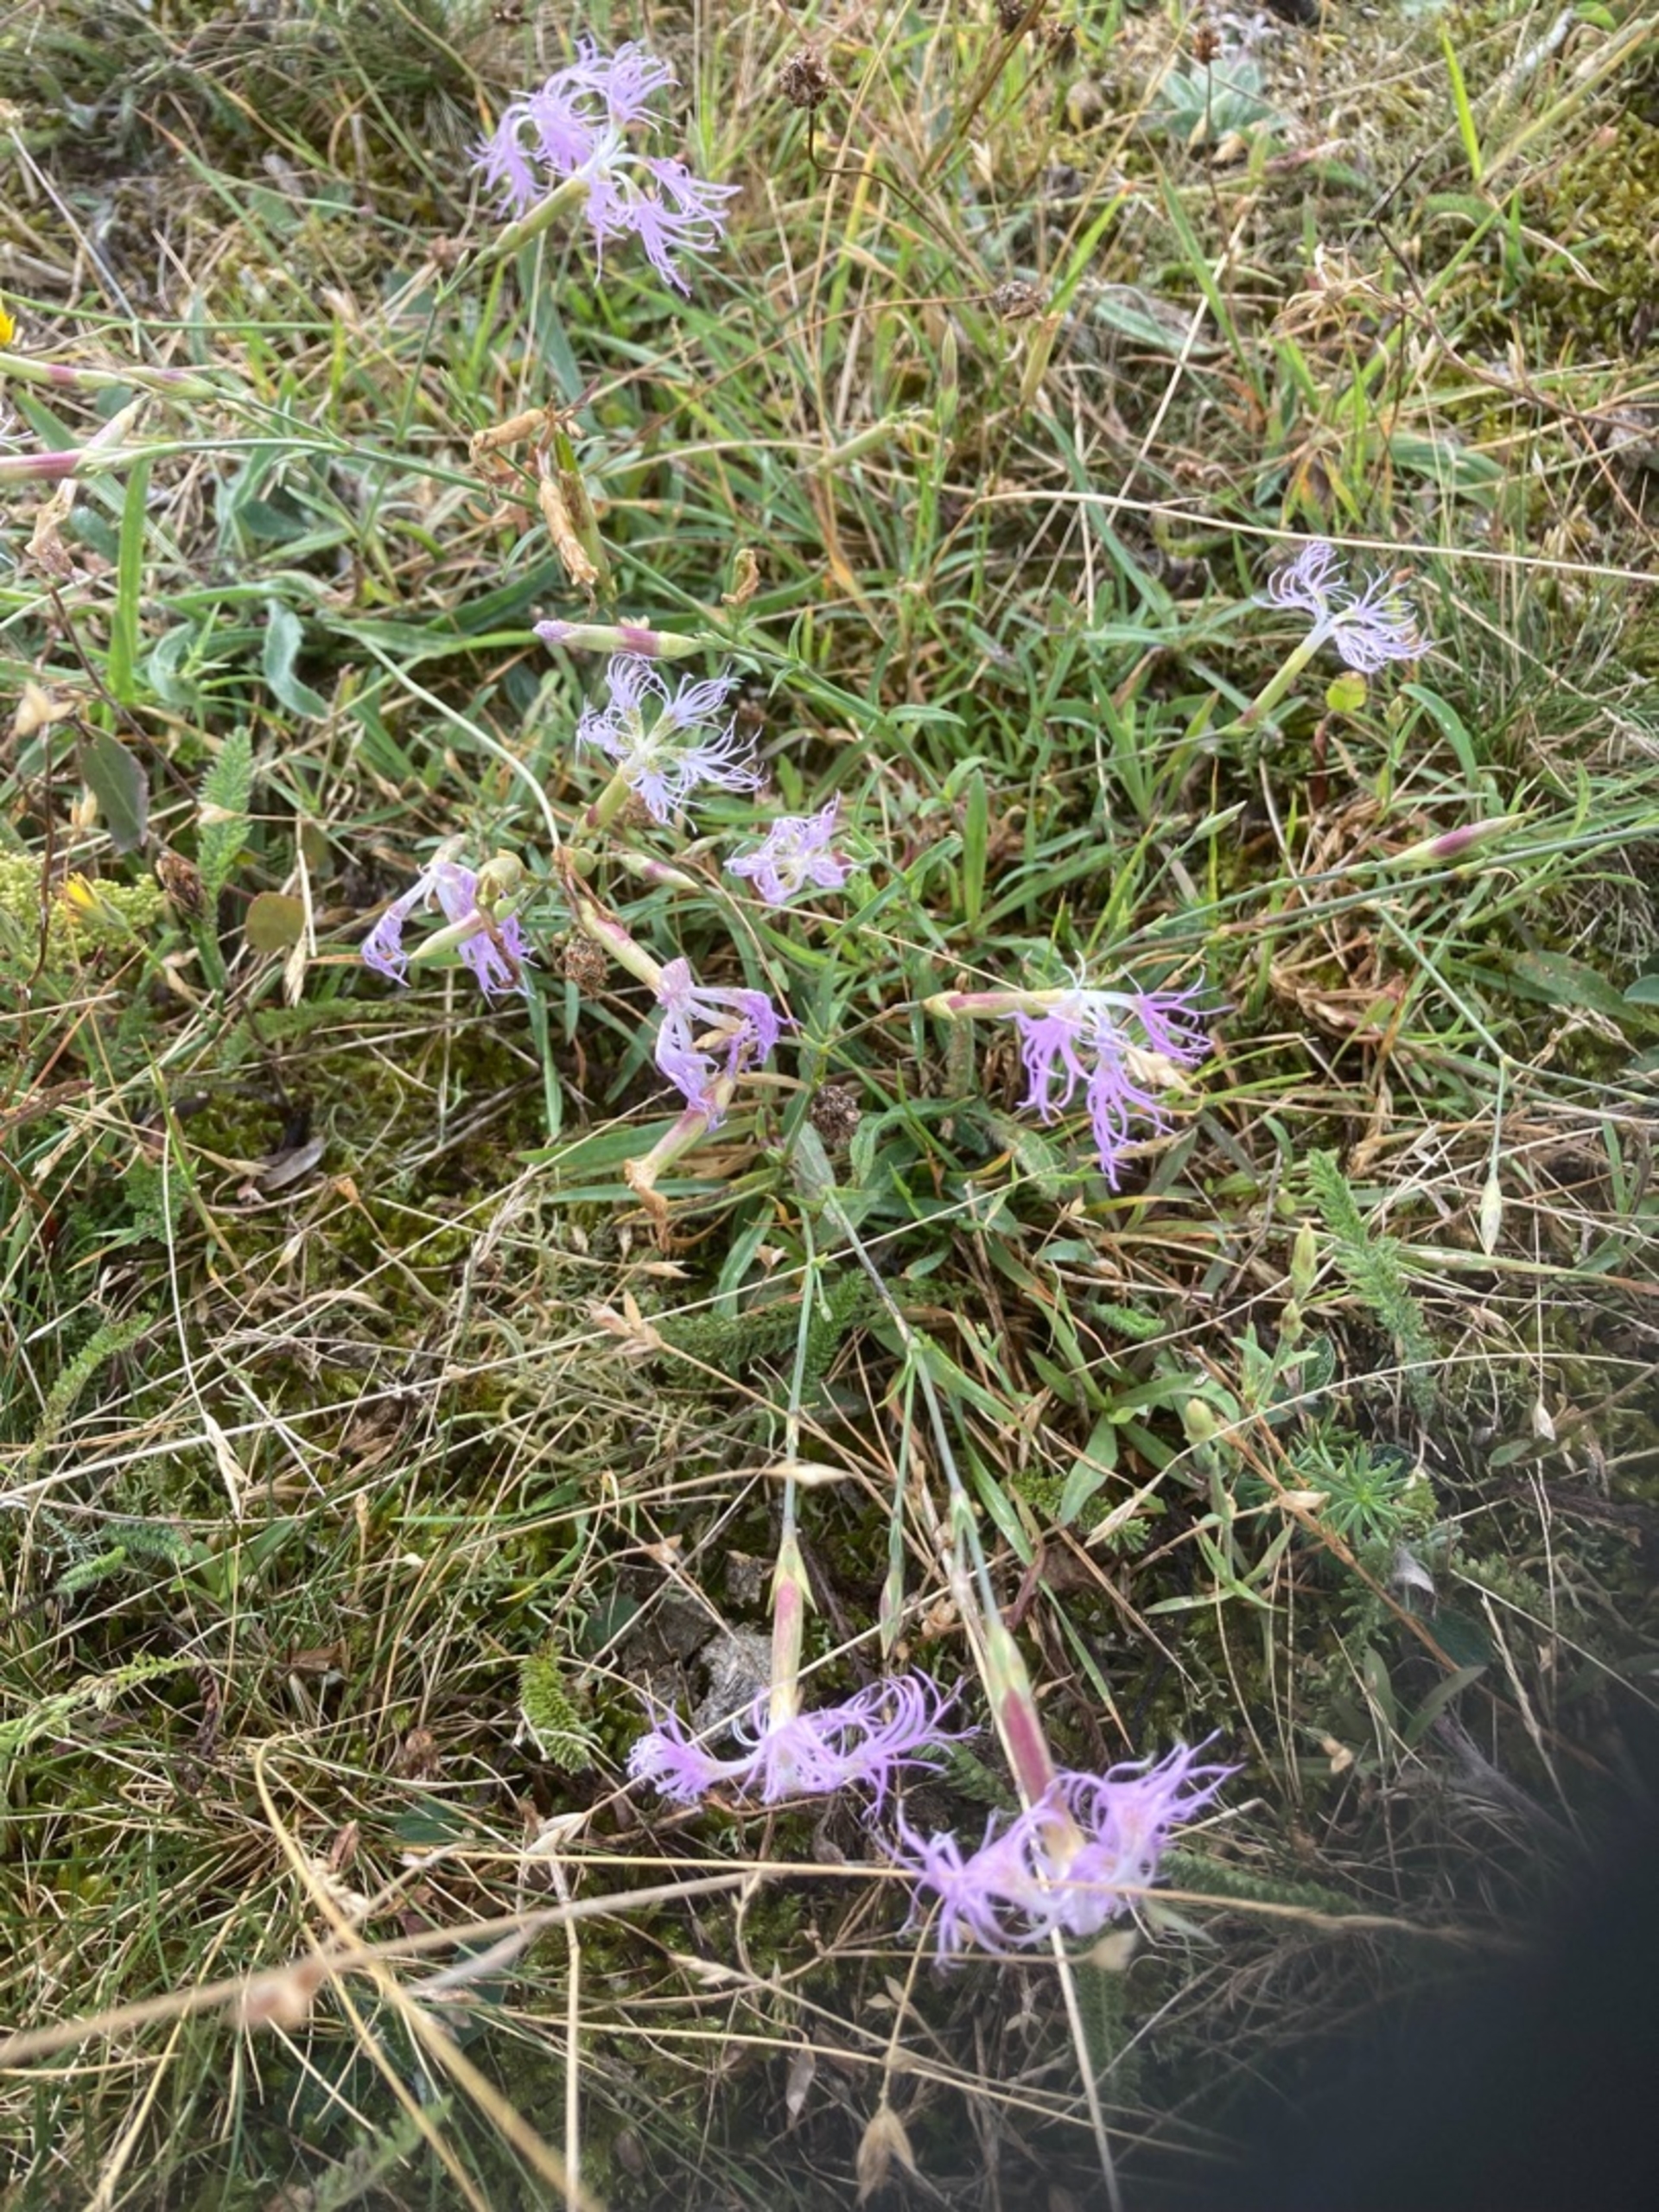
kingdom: Plantae
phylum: Tracheophyta
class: Magnoliopsida
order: Caryophyllales
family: Caryophyllaceae
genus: Dianthus
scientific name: Dianthus superbus
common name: Strand-nellike
